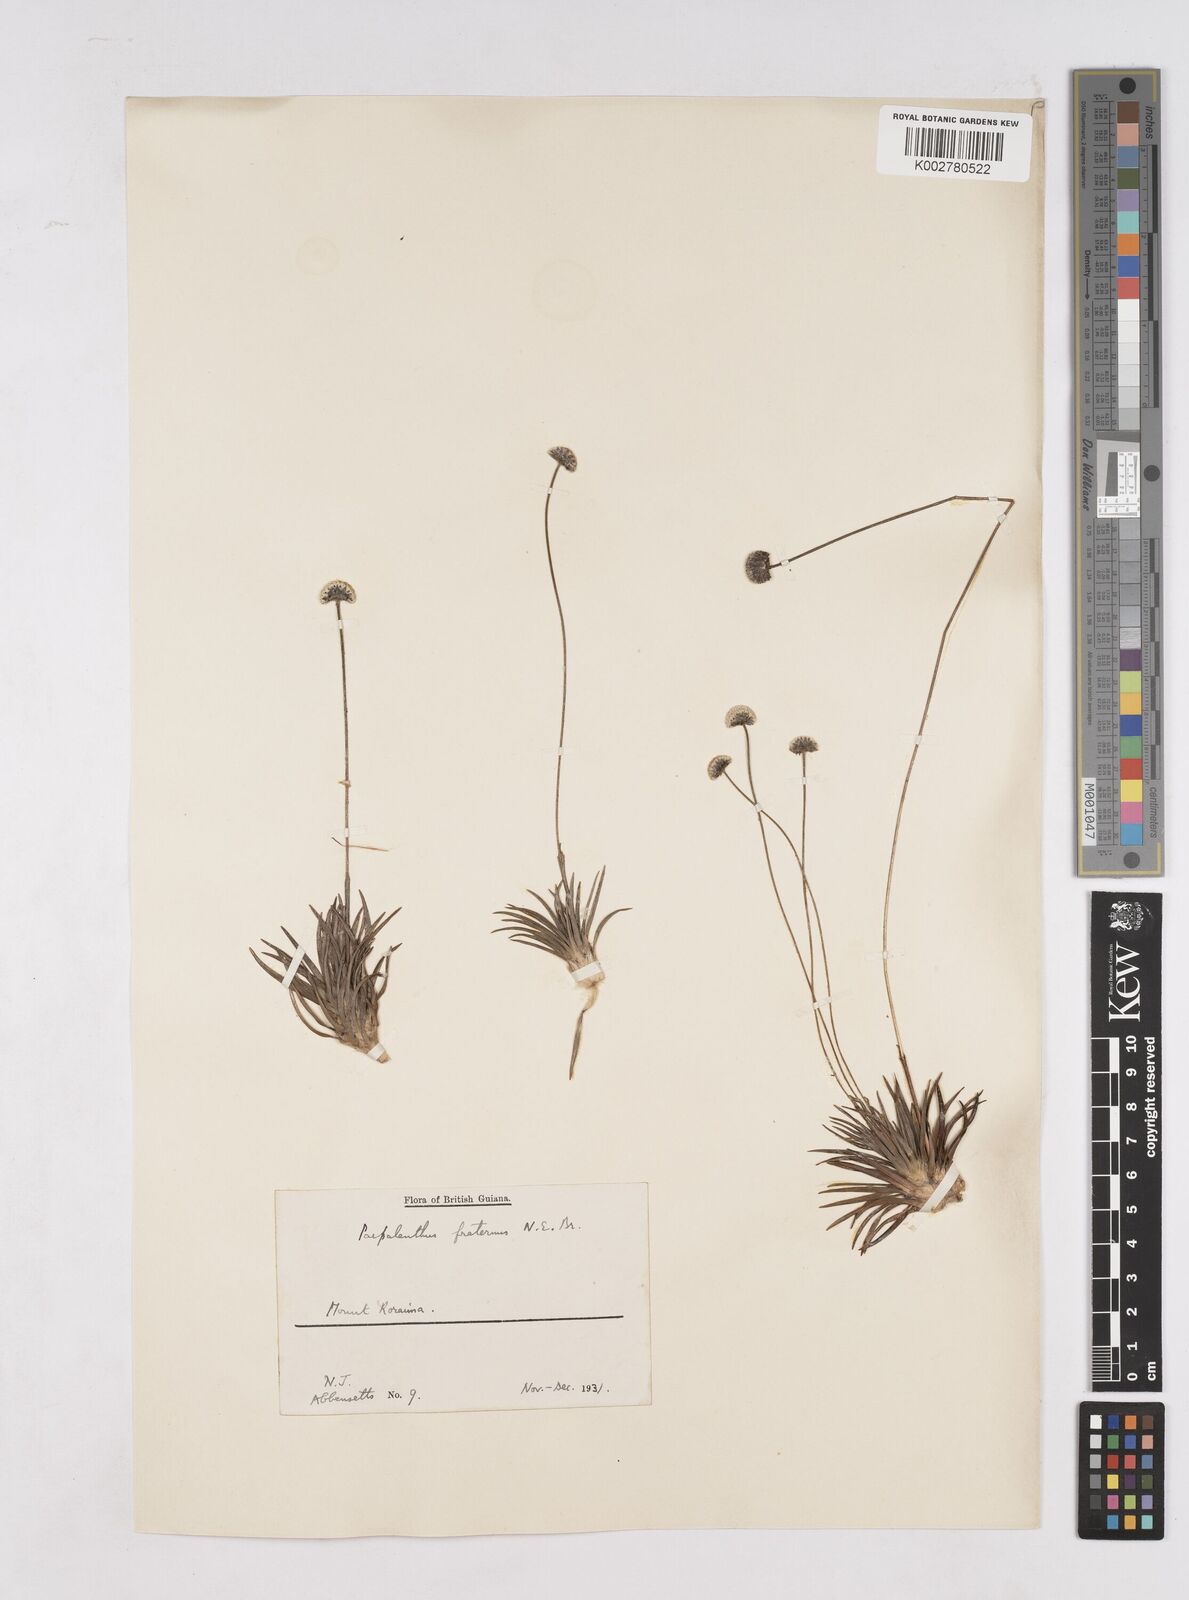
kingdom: Plantae
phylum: Tracheophyta
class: Liliopsida
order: Poales
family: Eriocaulaceae
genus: Paepalanthus
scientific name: Paepalanthus fraternus
